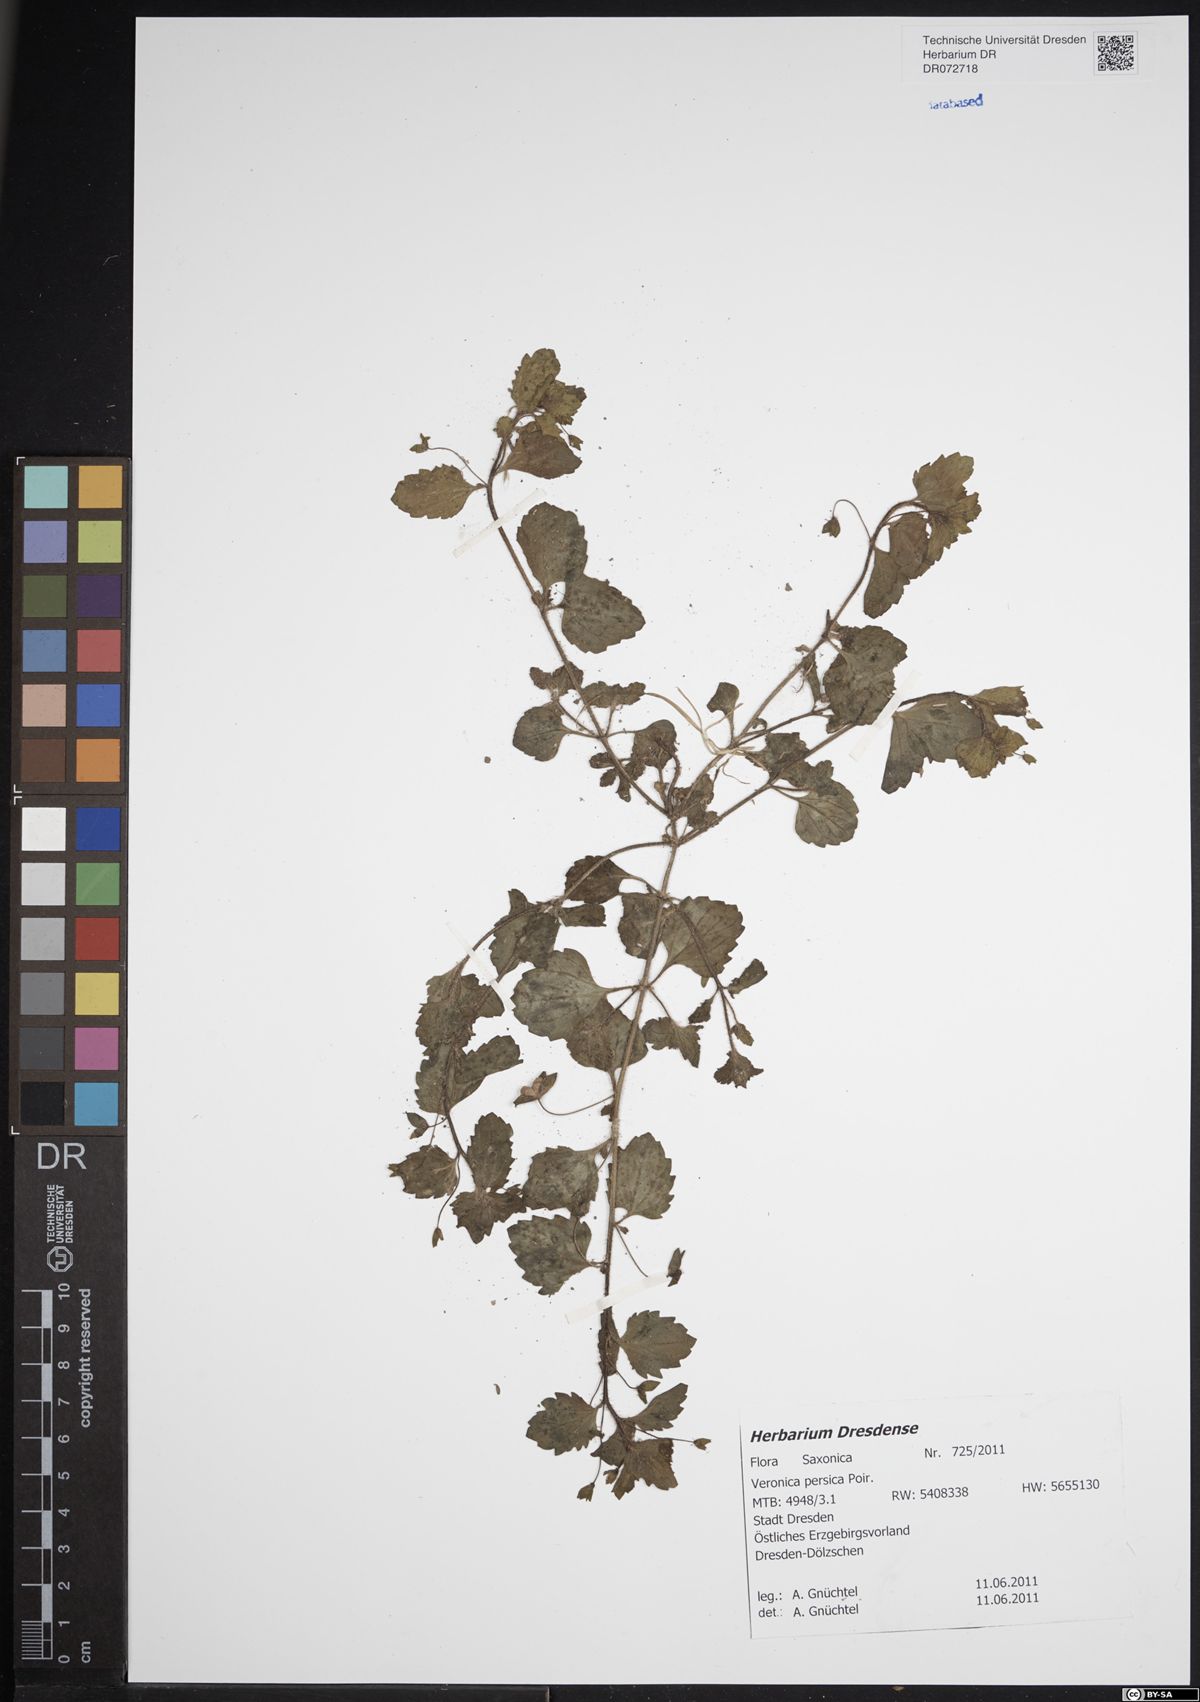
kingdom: Plantae
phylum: Tracheophyta
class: Magnoliopsida
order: Lamiales
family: Plantaginaceae
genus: Veronica
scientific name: Veronica persica
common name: Common field-speedwell
